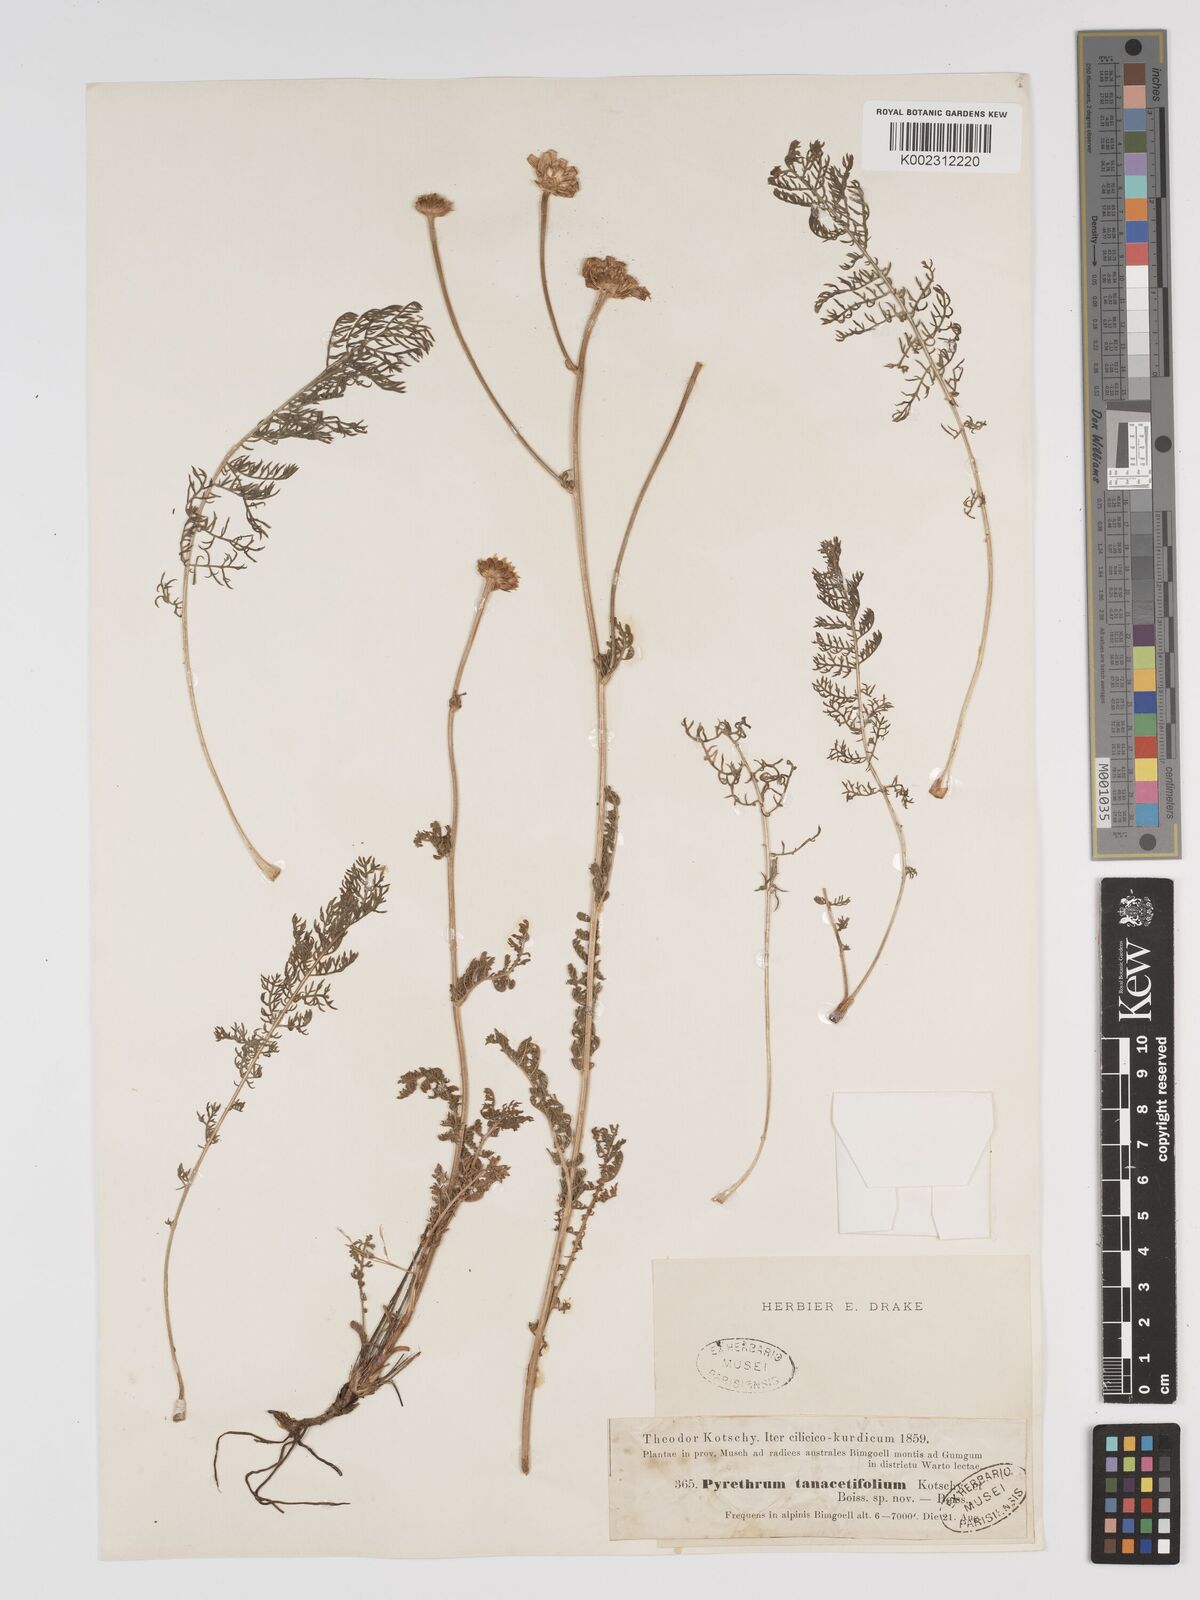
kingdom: Plantae
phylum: Tracheophyta
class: Magnoliopsida
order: Asterales
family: Asteraceae
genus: Tanacetum
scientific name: Tanacetum
